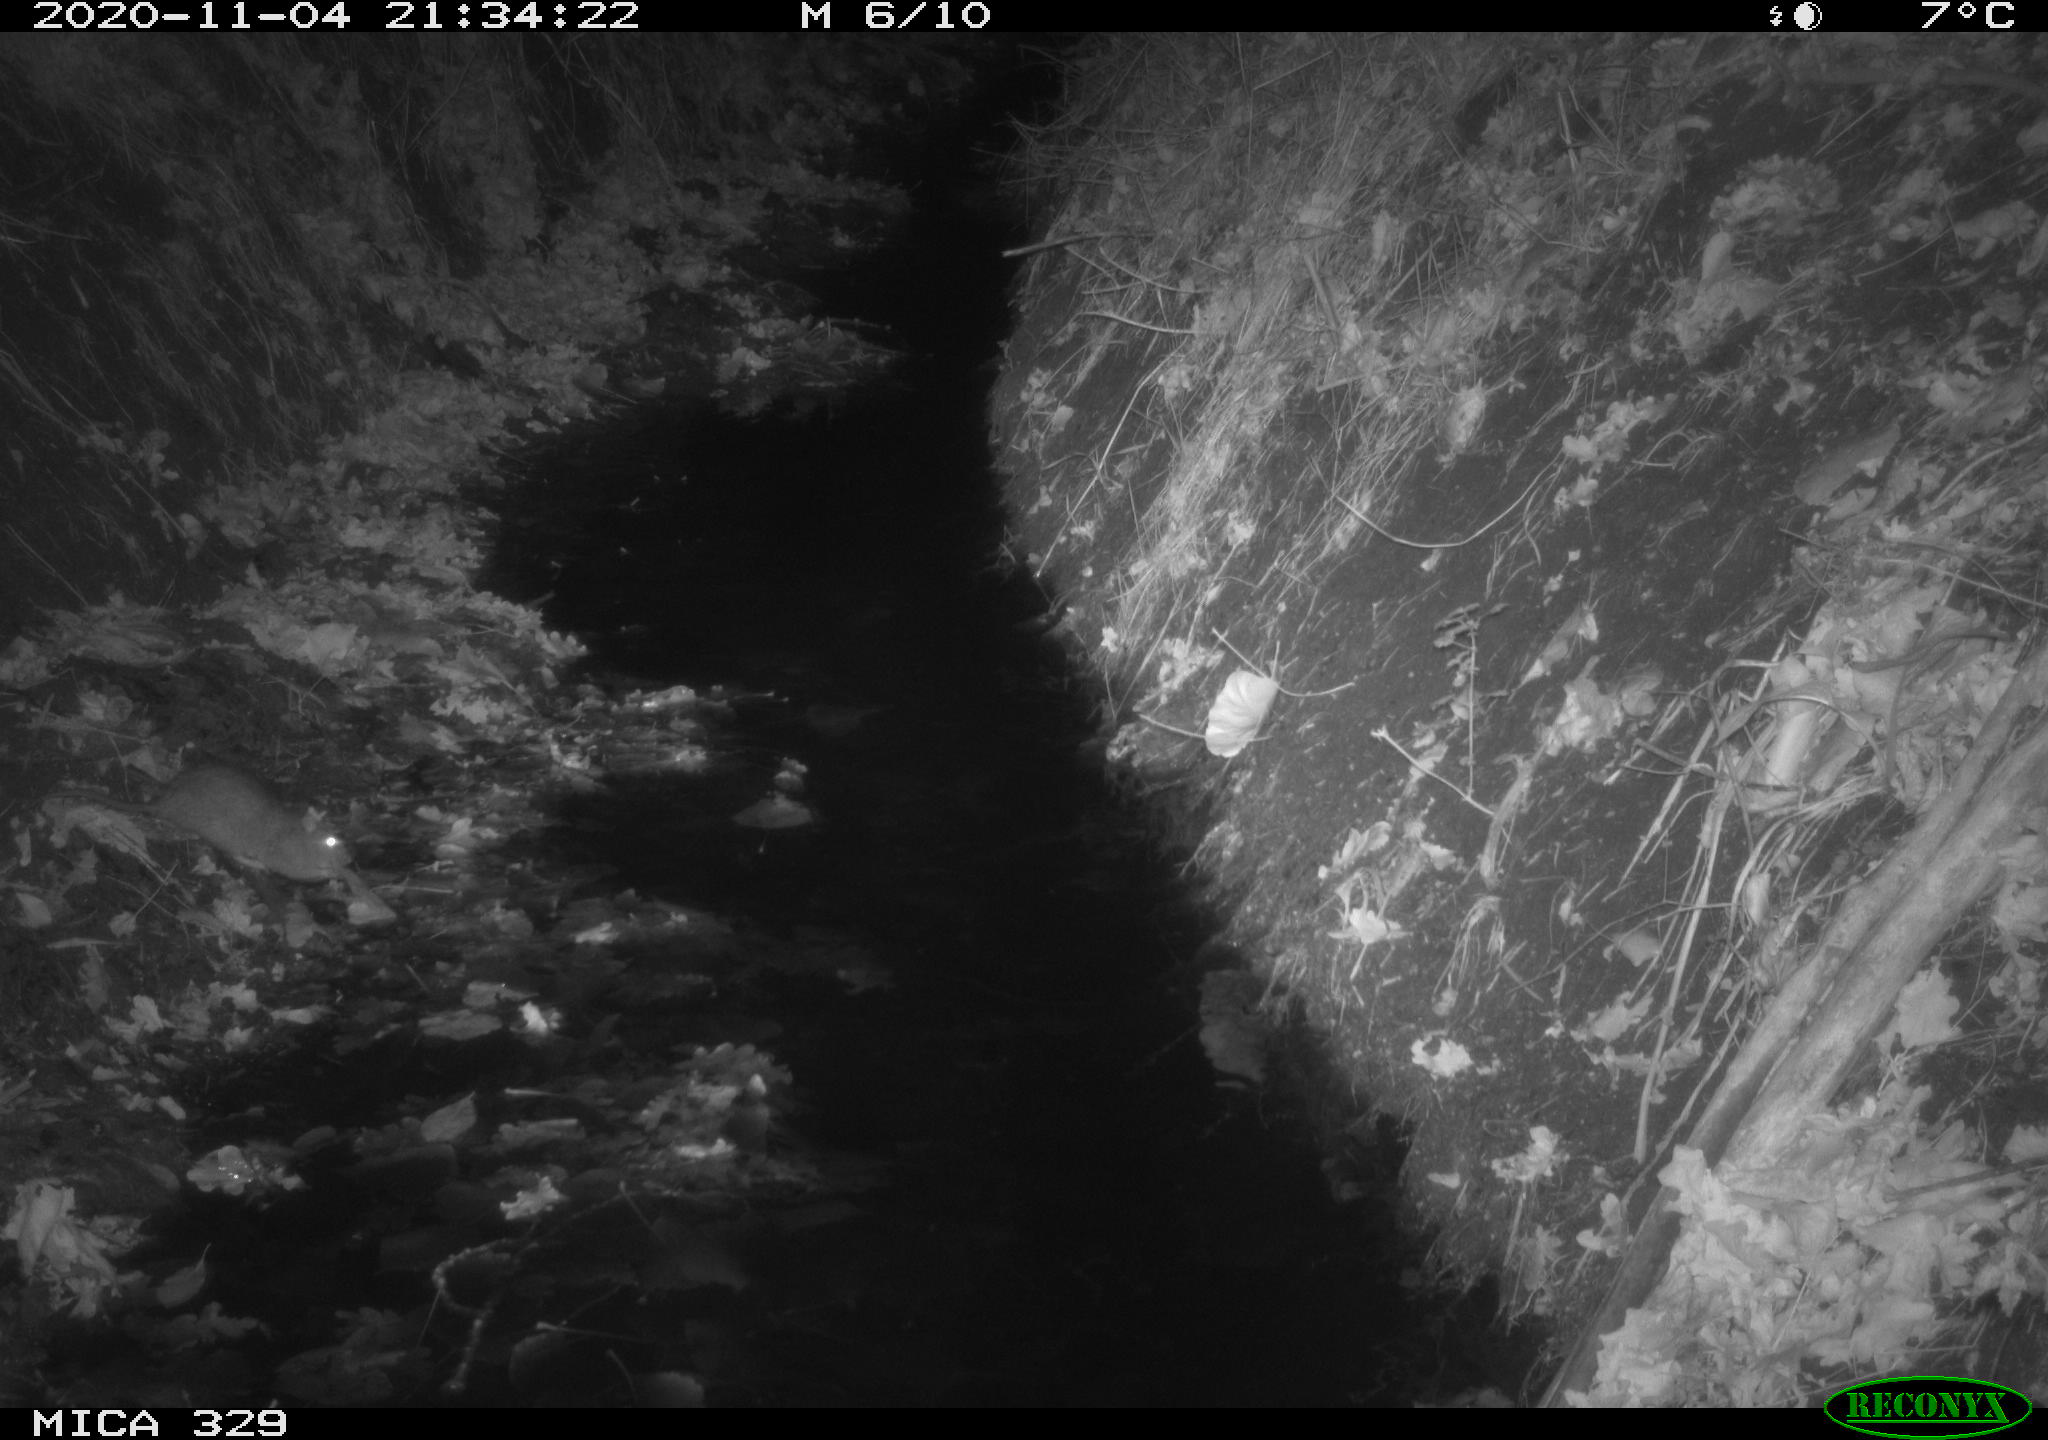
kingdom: Animalia
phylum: Chordata
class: Mammalia
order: Rodentia
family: Muridae
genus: Rattus
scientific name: Rattus norvegicus
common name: Brown rat
